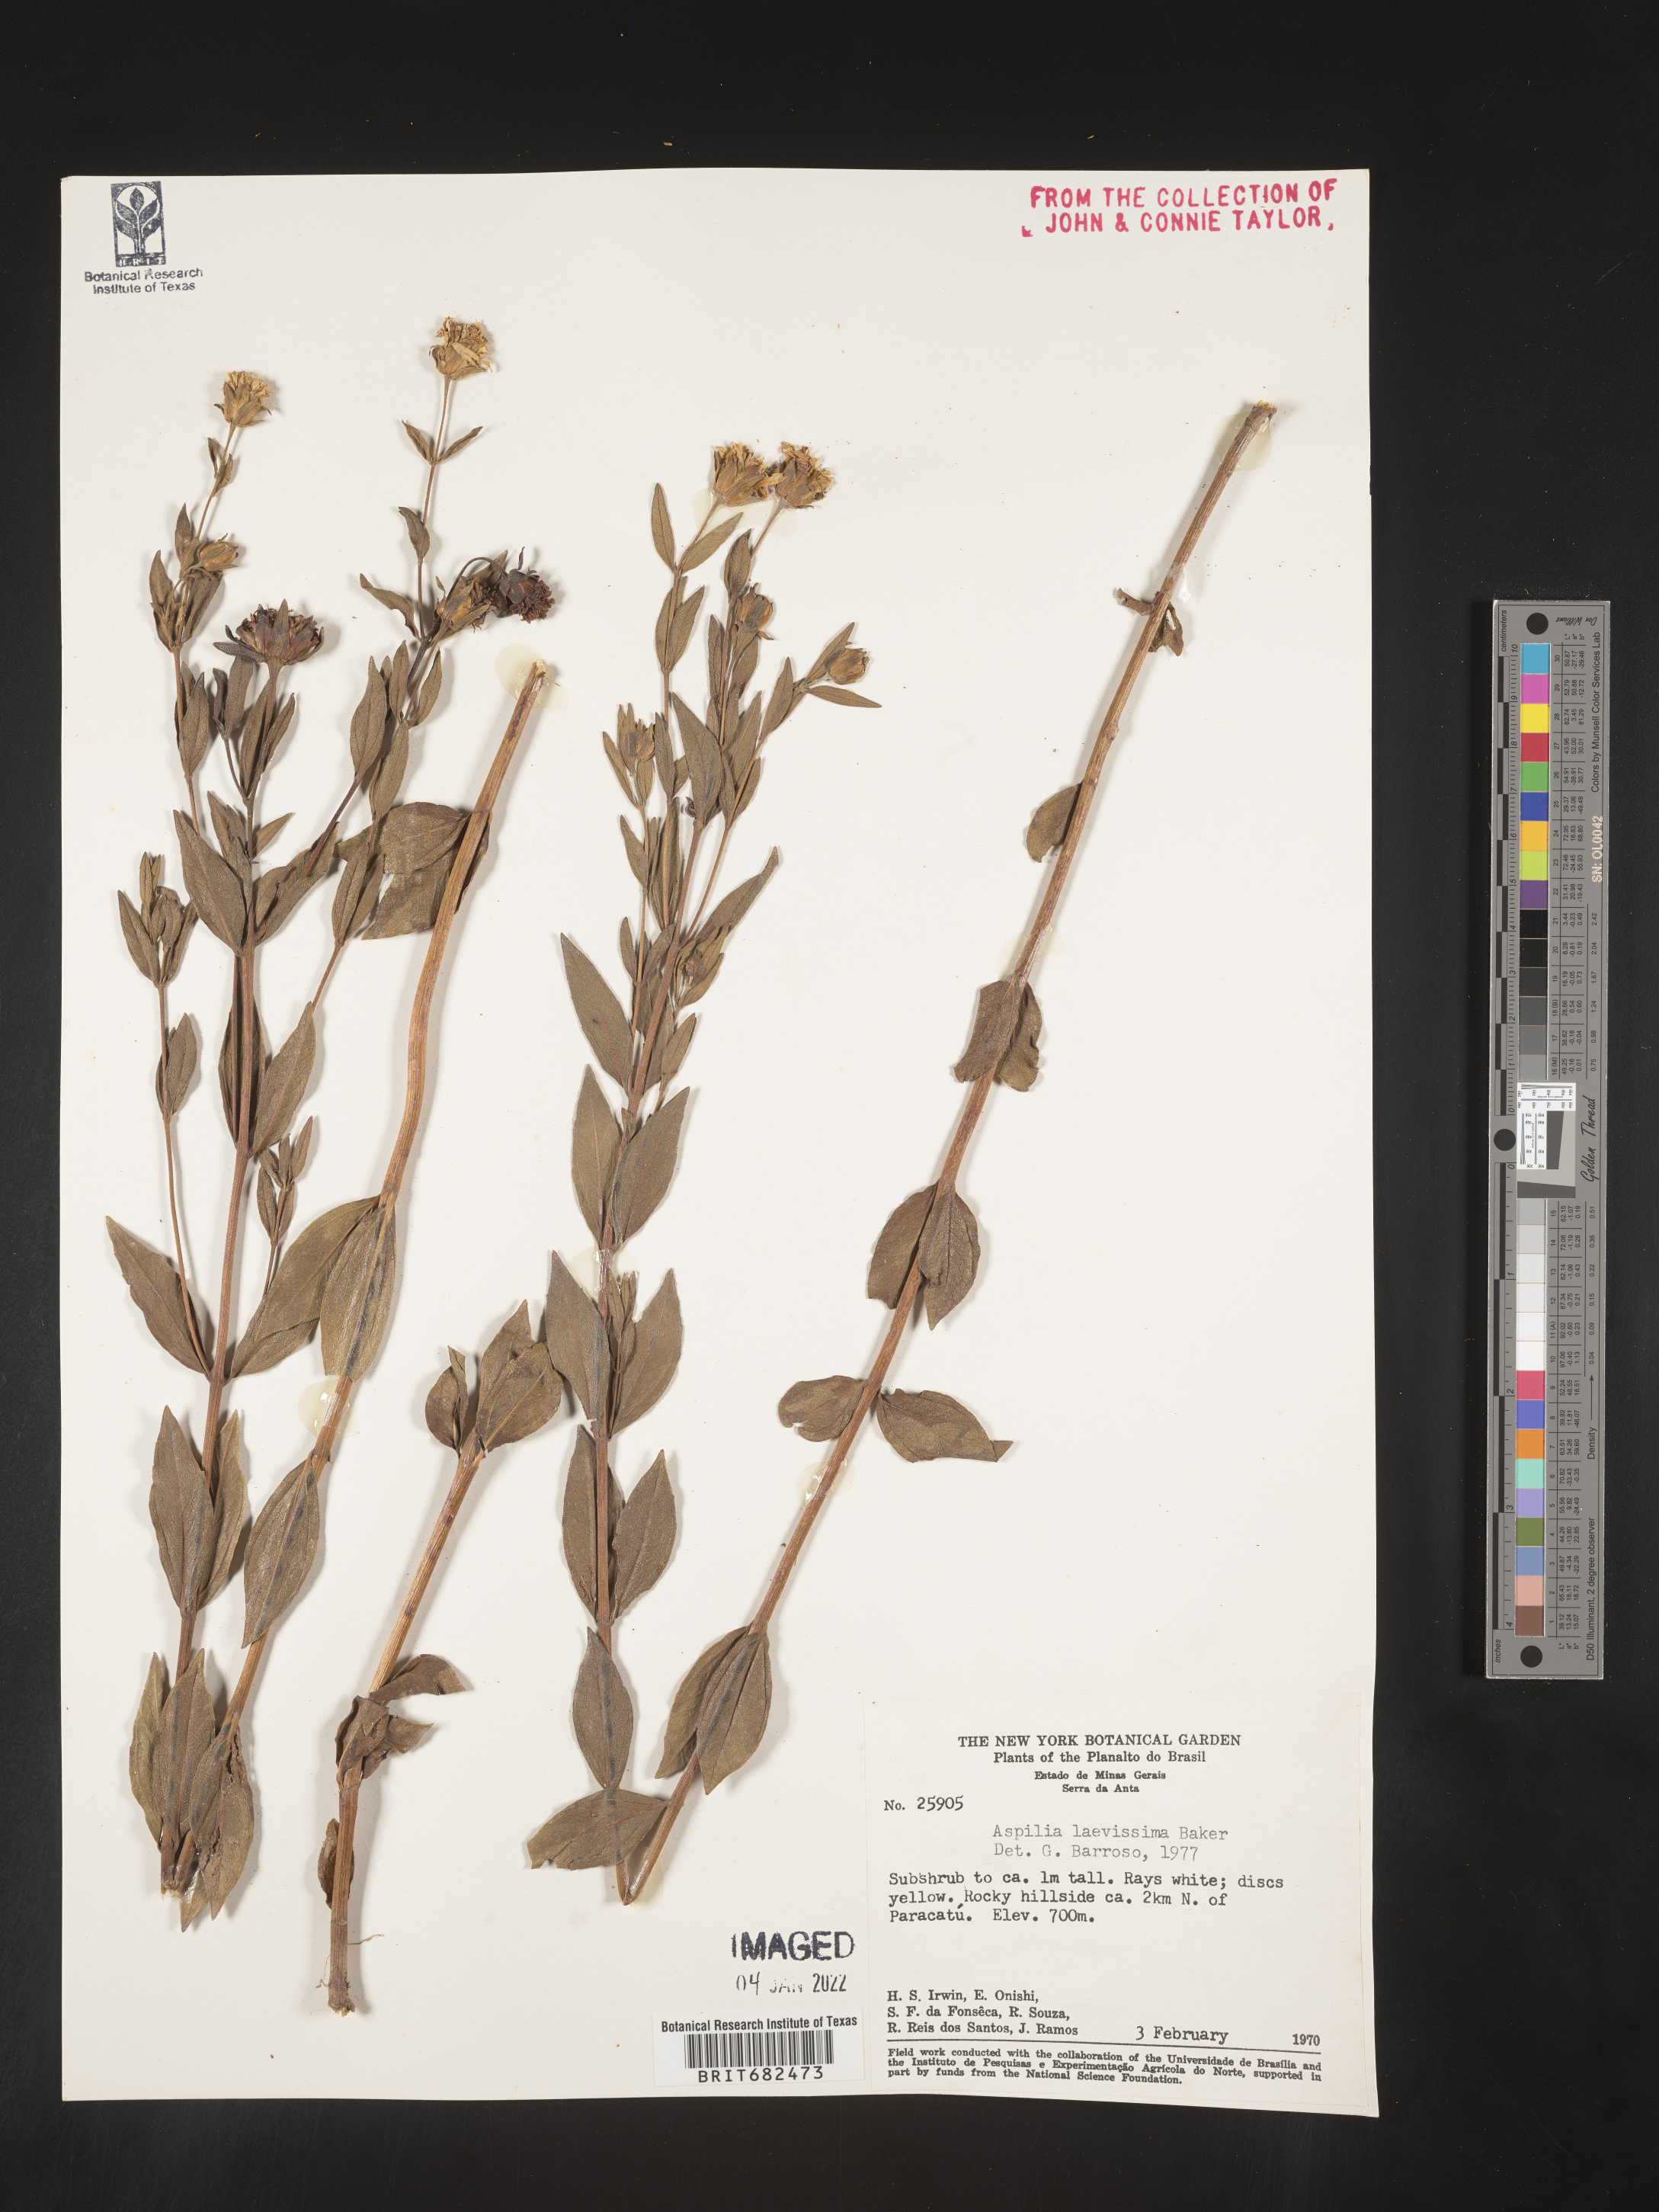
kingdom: Plantae
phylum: Tracheophyta
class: Magnoliopsida
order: Asterales
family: Asteraceae
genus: Aspilia
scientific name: Aspilia
